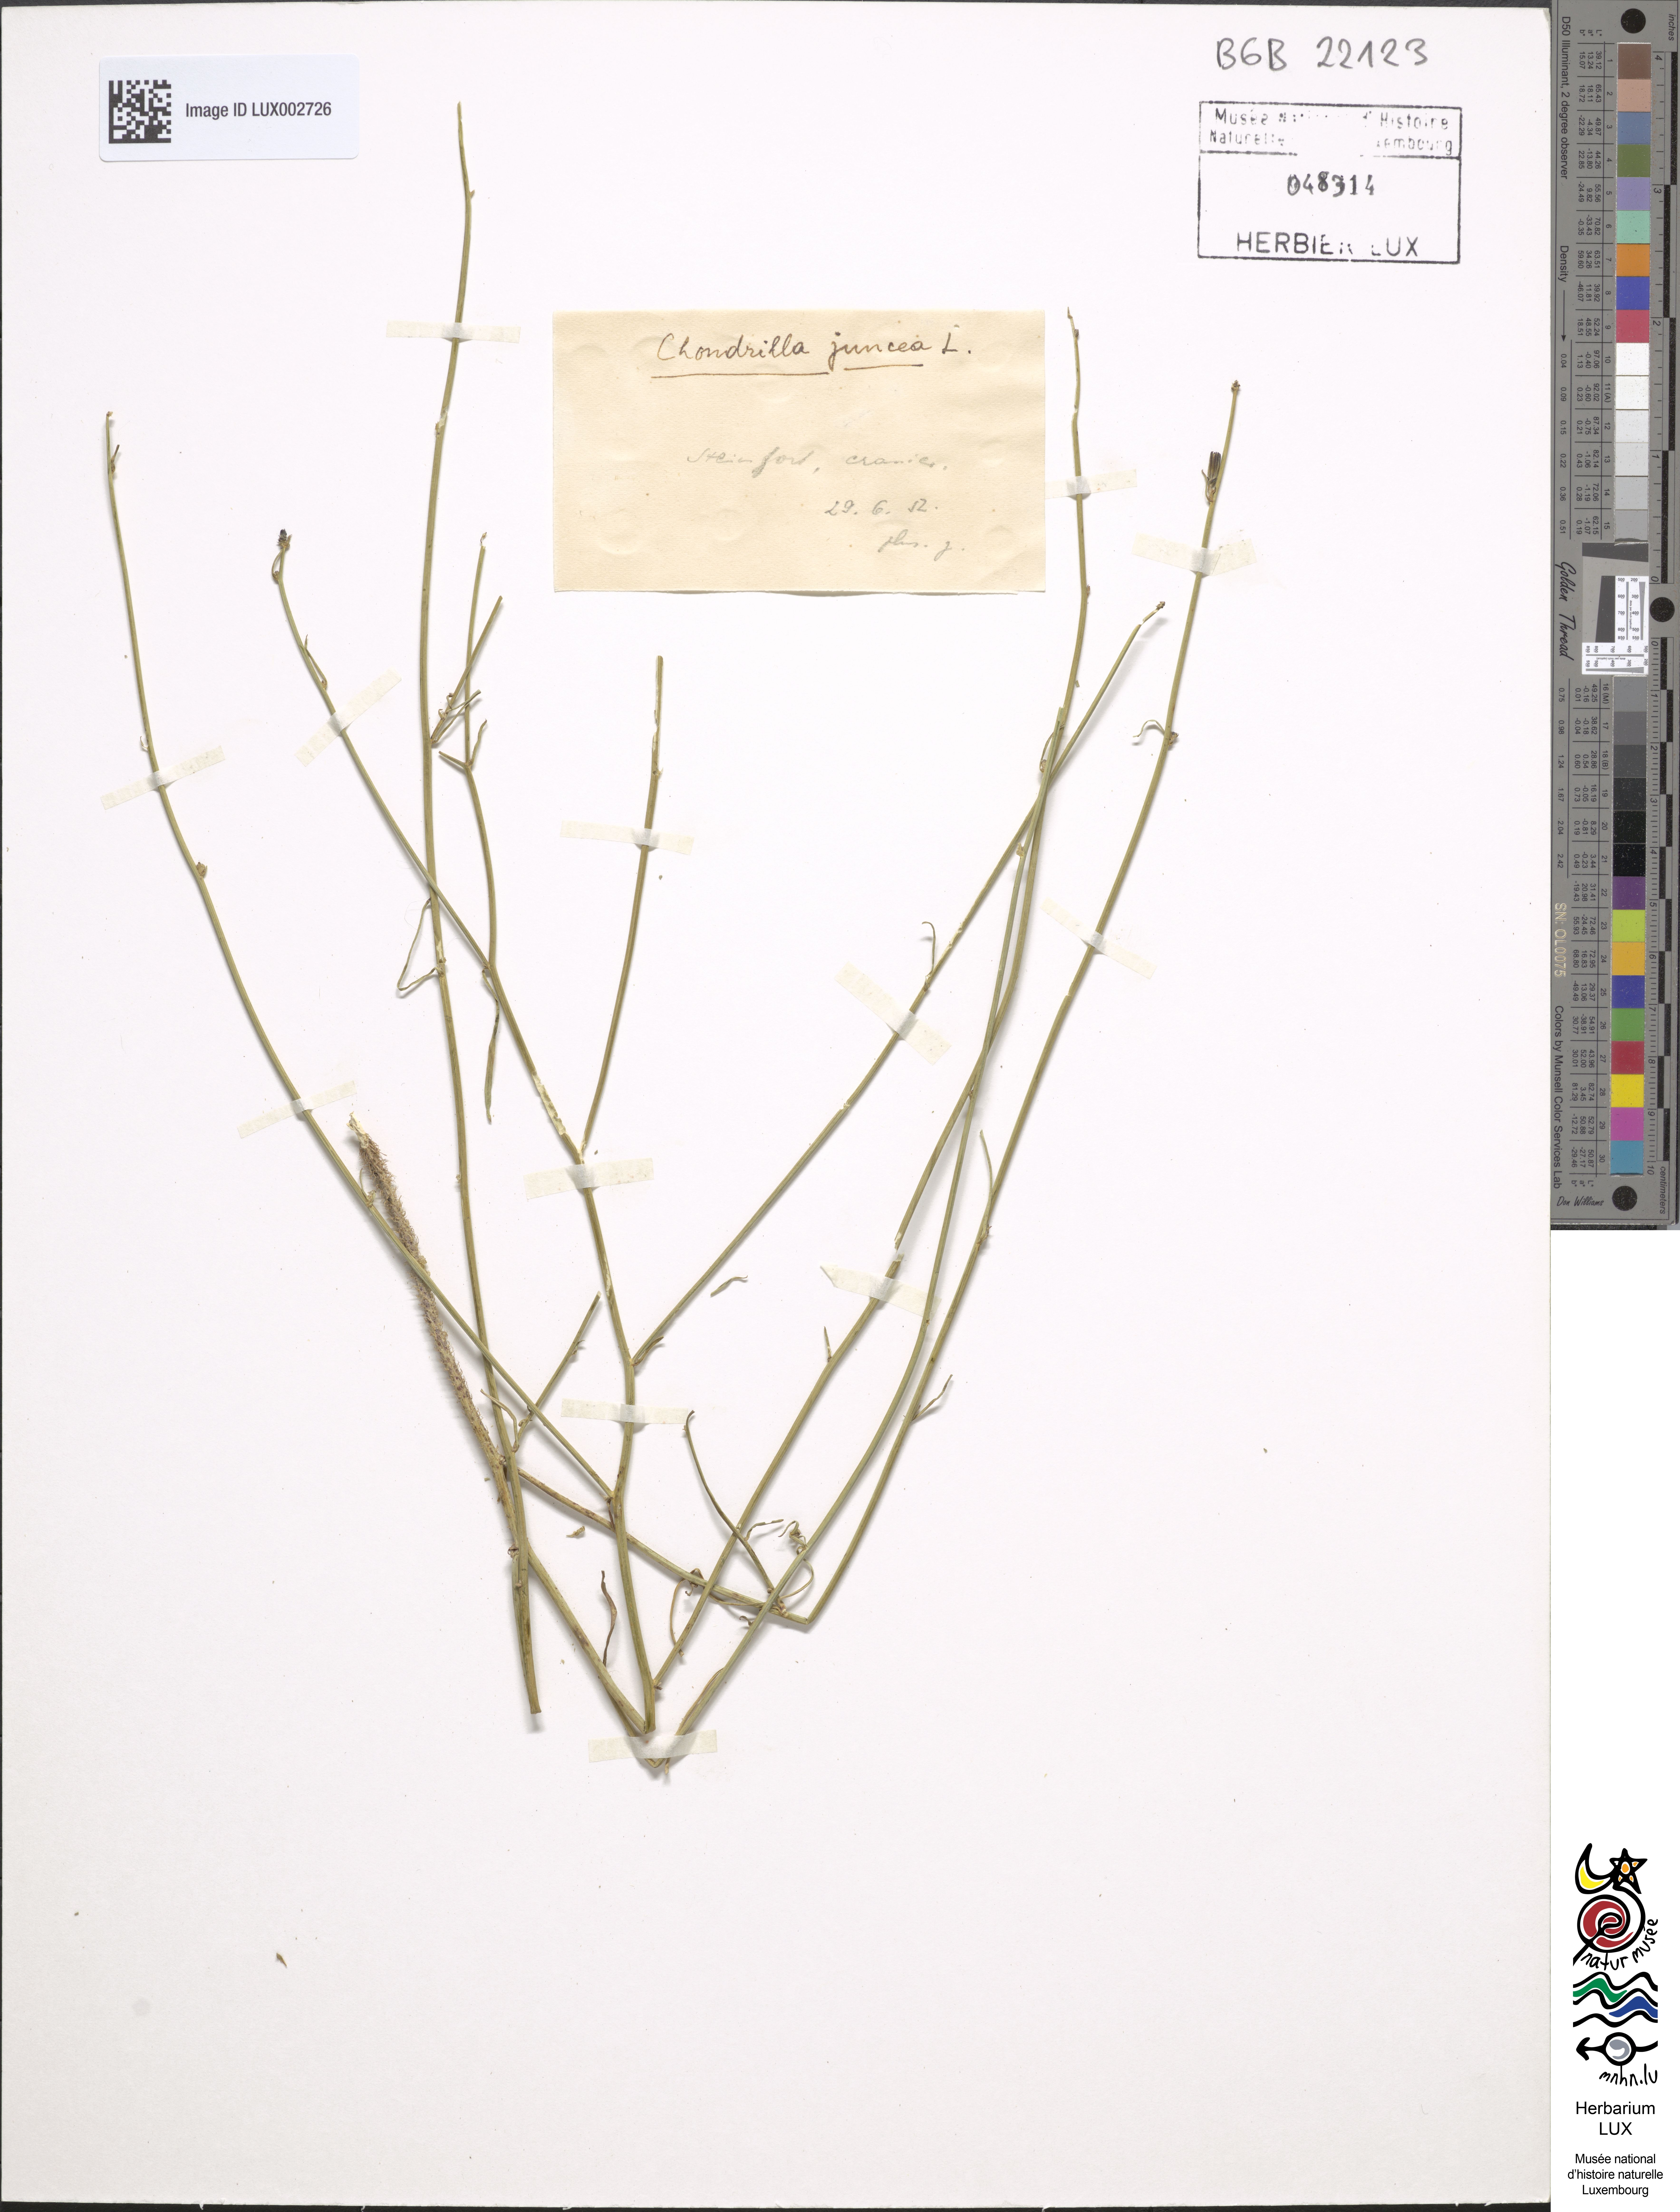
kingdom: Plantae
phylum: Tracheophyta
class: Magnoliopsida
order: Asterales
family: Asteraceae
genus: Chondrilla
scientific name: Chondrilla juncea
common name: Skeleton weed
